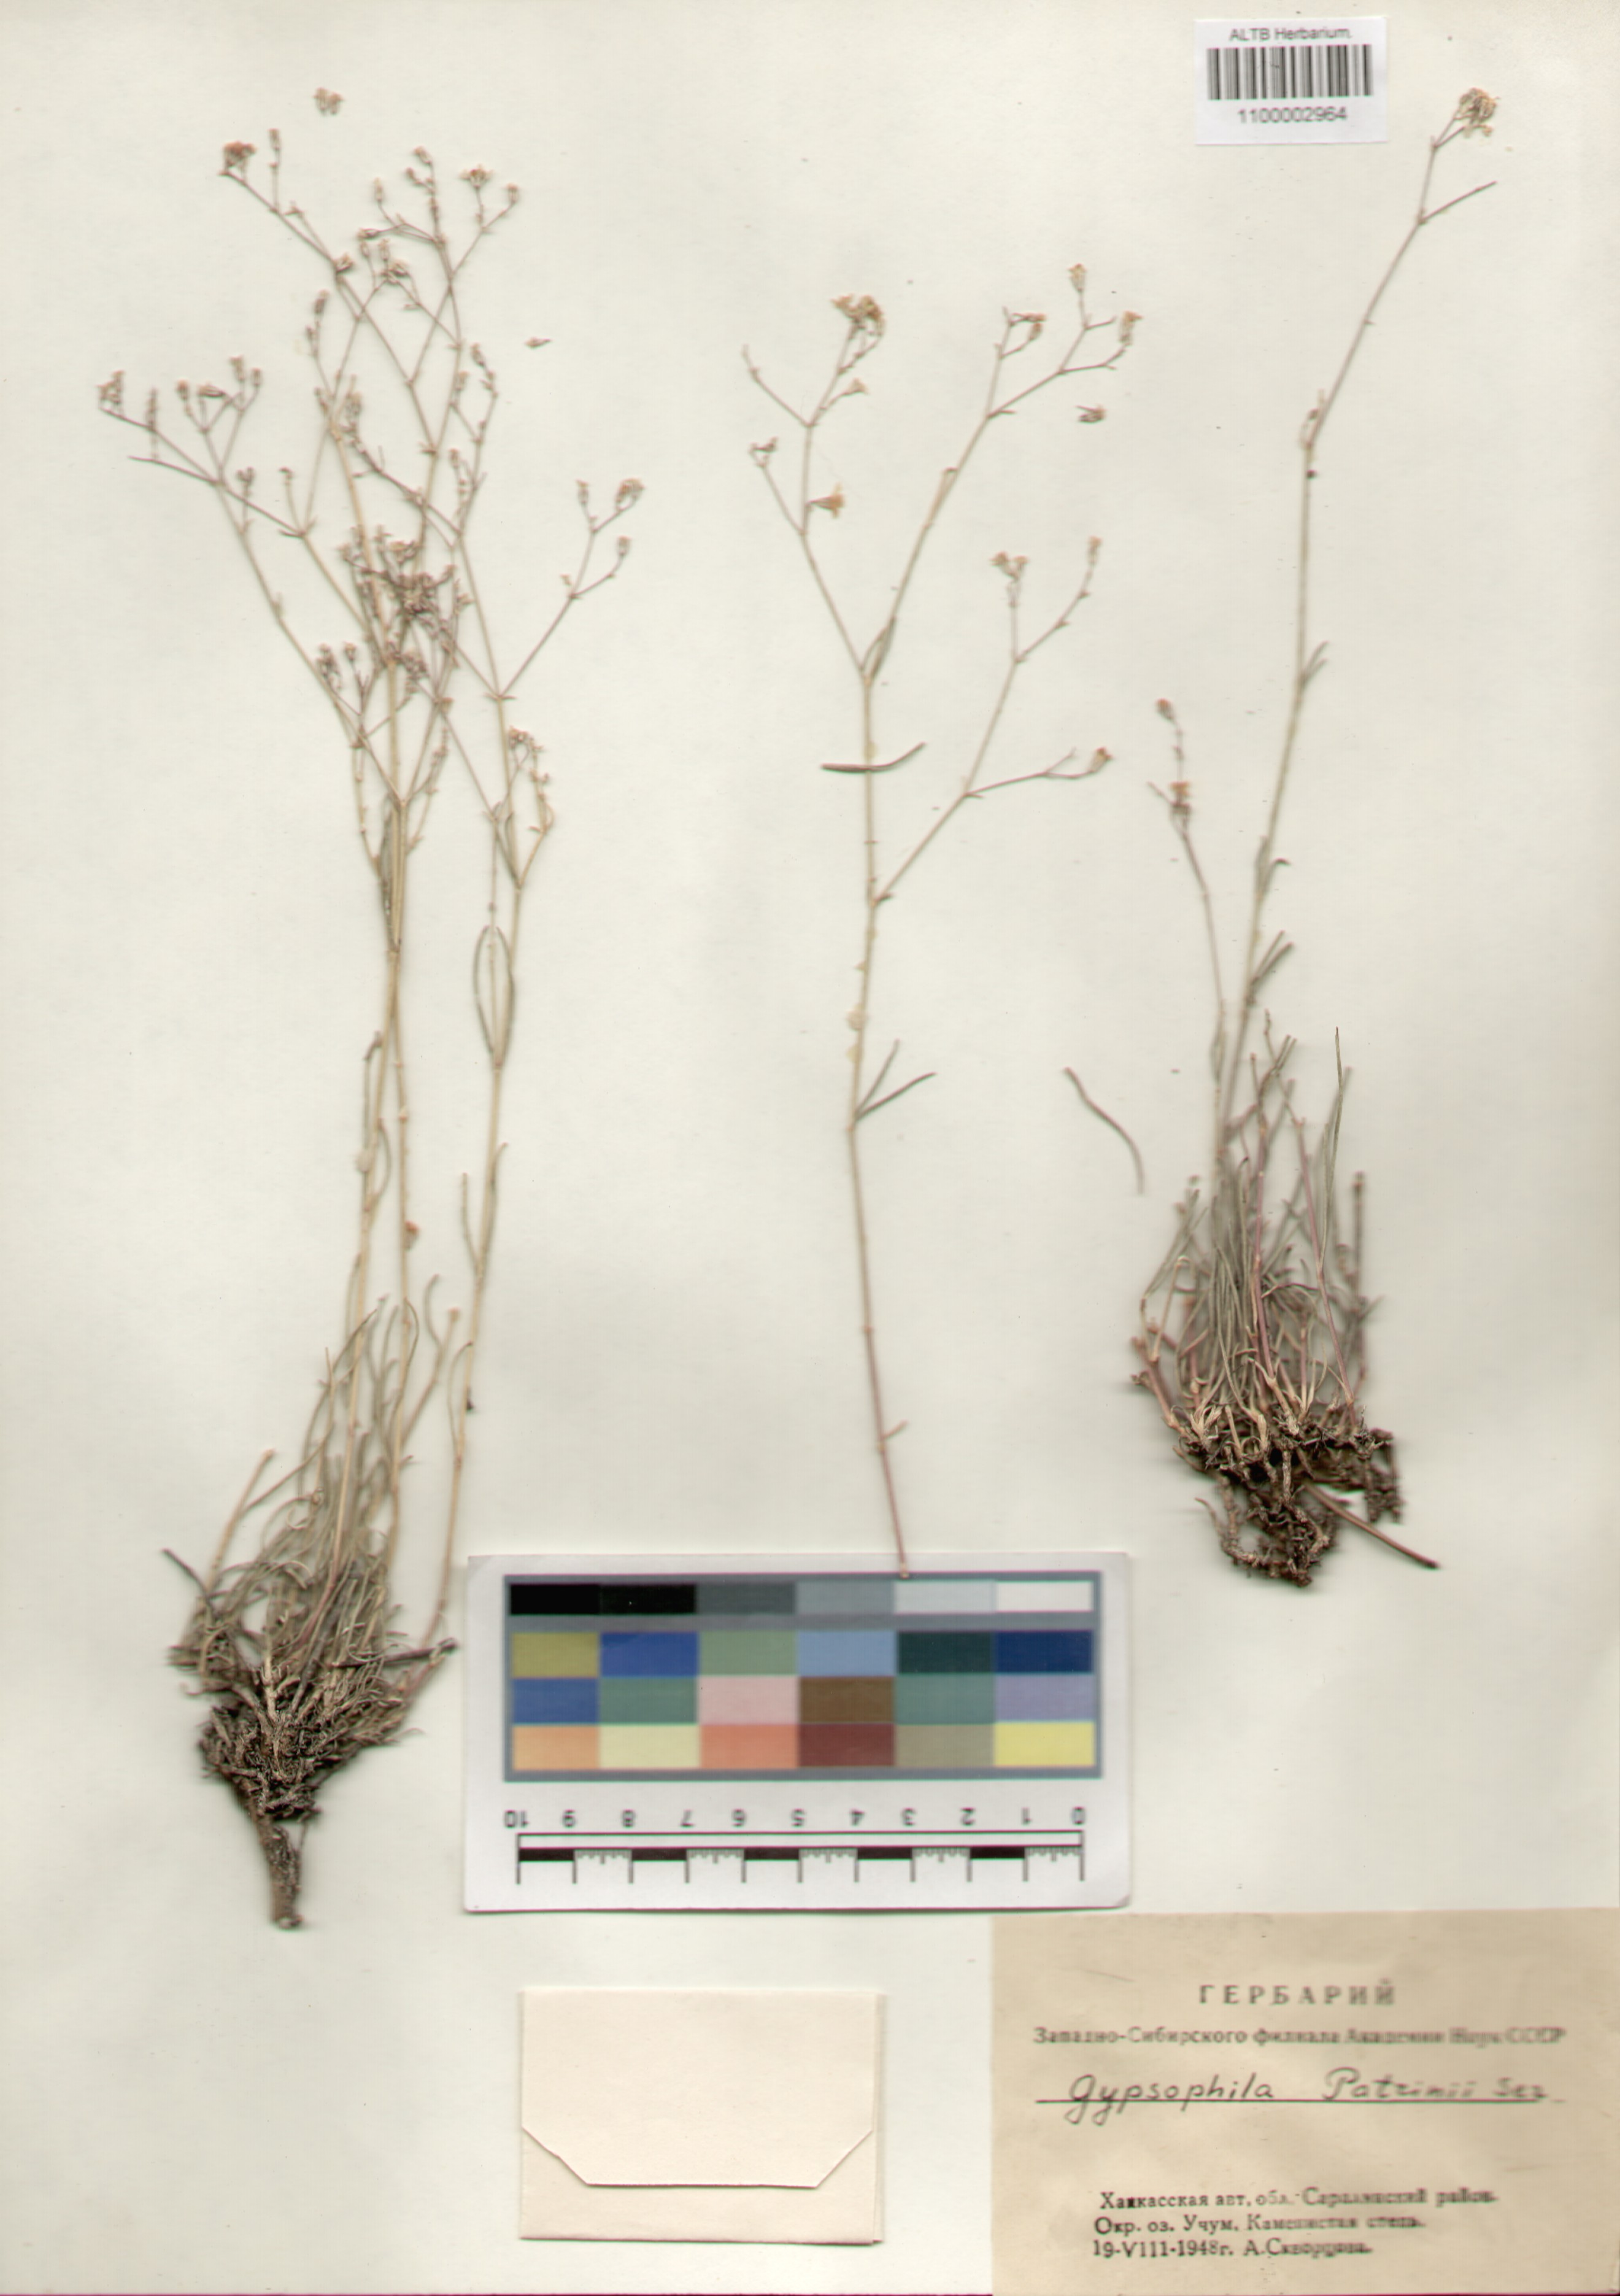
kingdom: Plantae
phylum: Tracheophyta
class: Magnoliopsida
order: Caryophyllales
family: Caryophyllaceae
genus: Gypsophila
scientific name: Gypsophila patrinii
